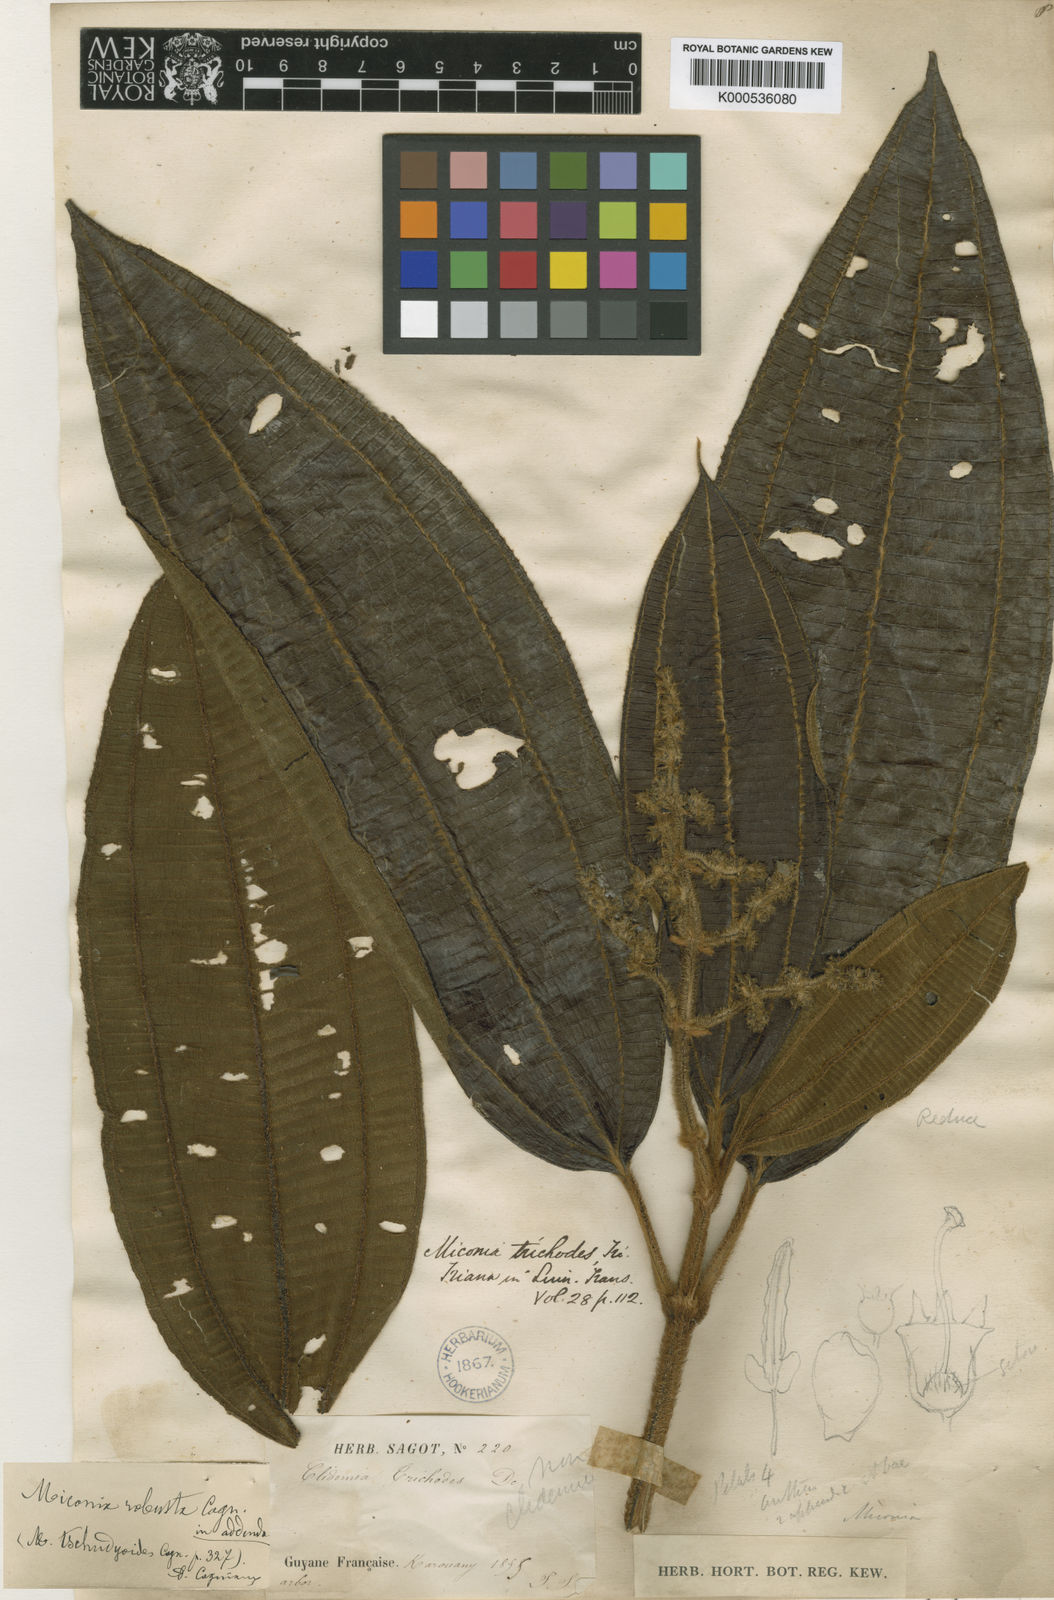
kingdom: Plantae
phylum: Tracheophyta
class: Magnoliopsida
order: Myrtales
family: Melastomataceae
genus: Miconia
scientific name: Miconia tschudyoides
